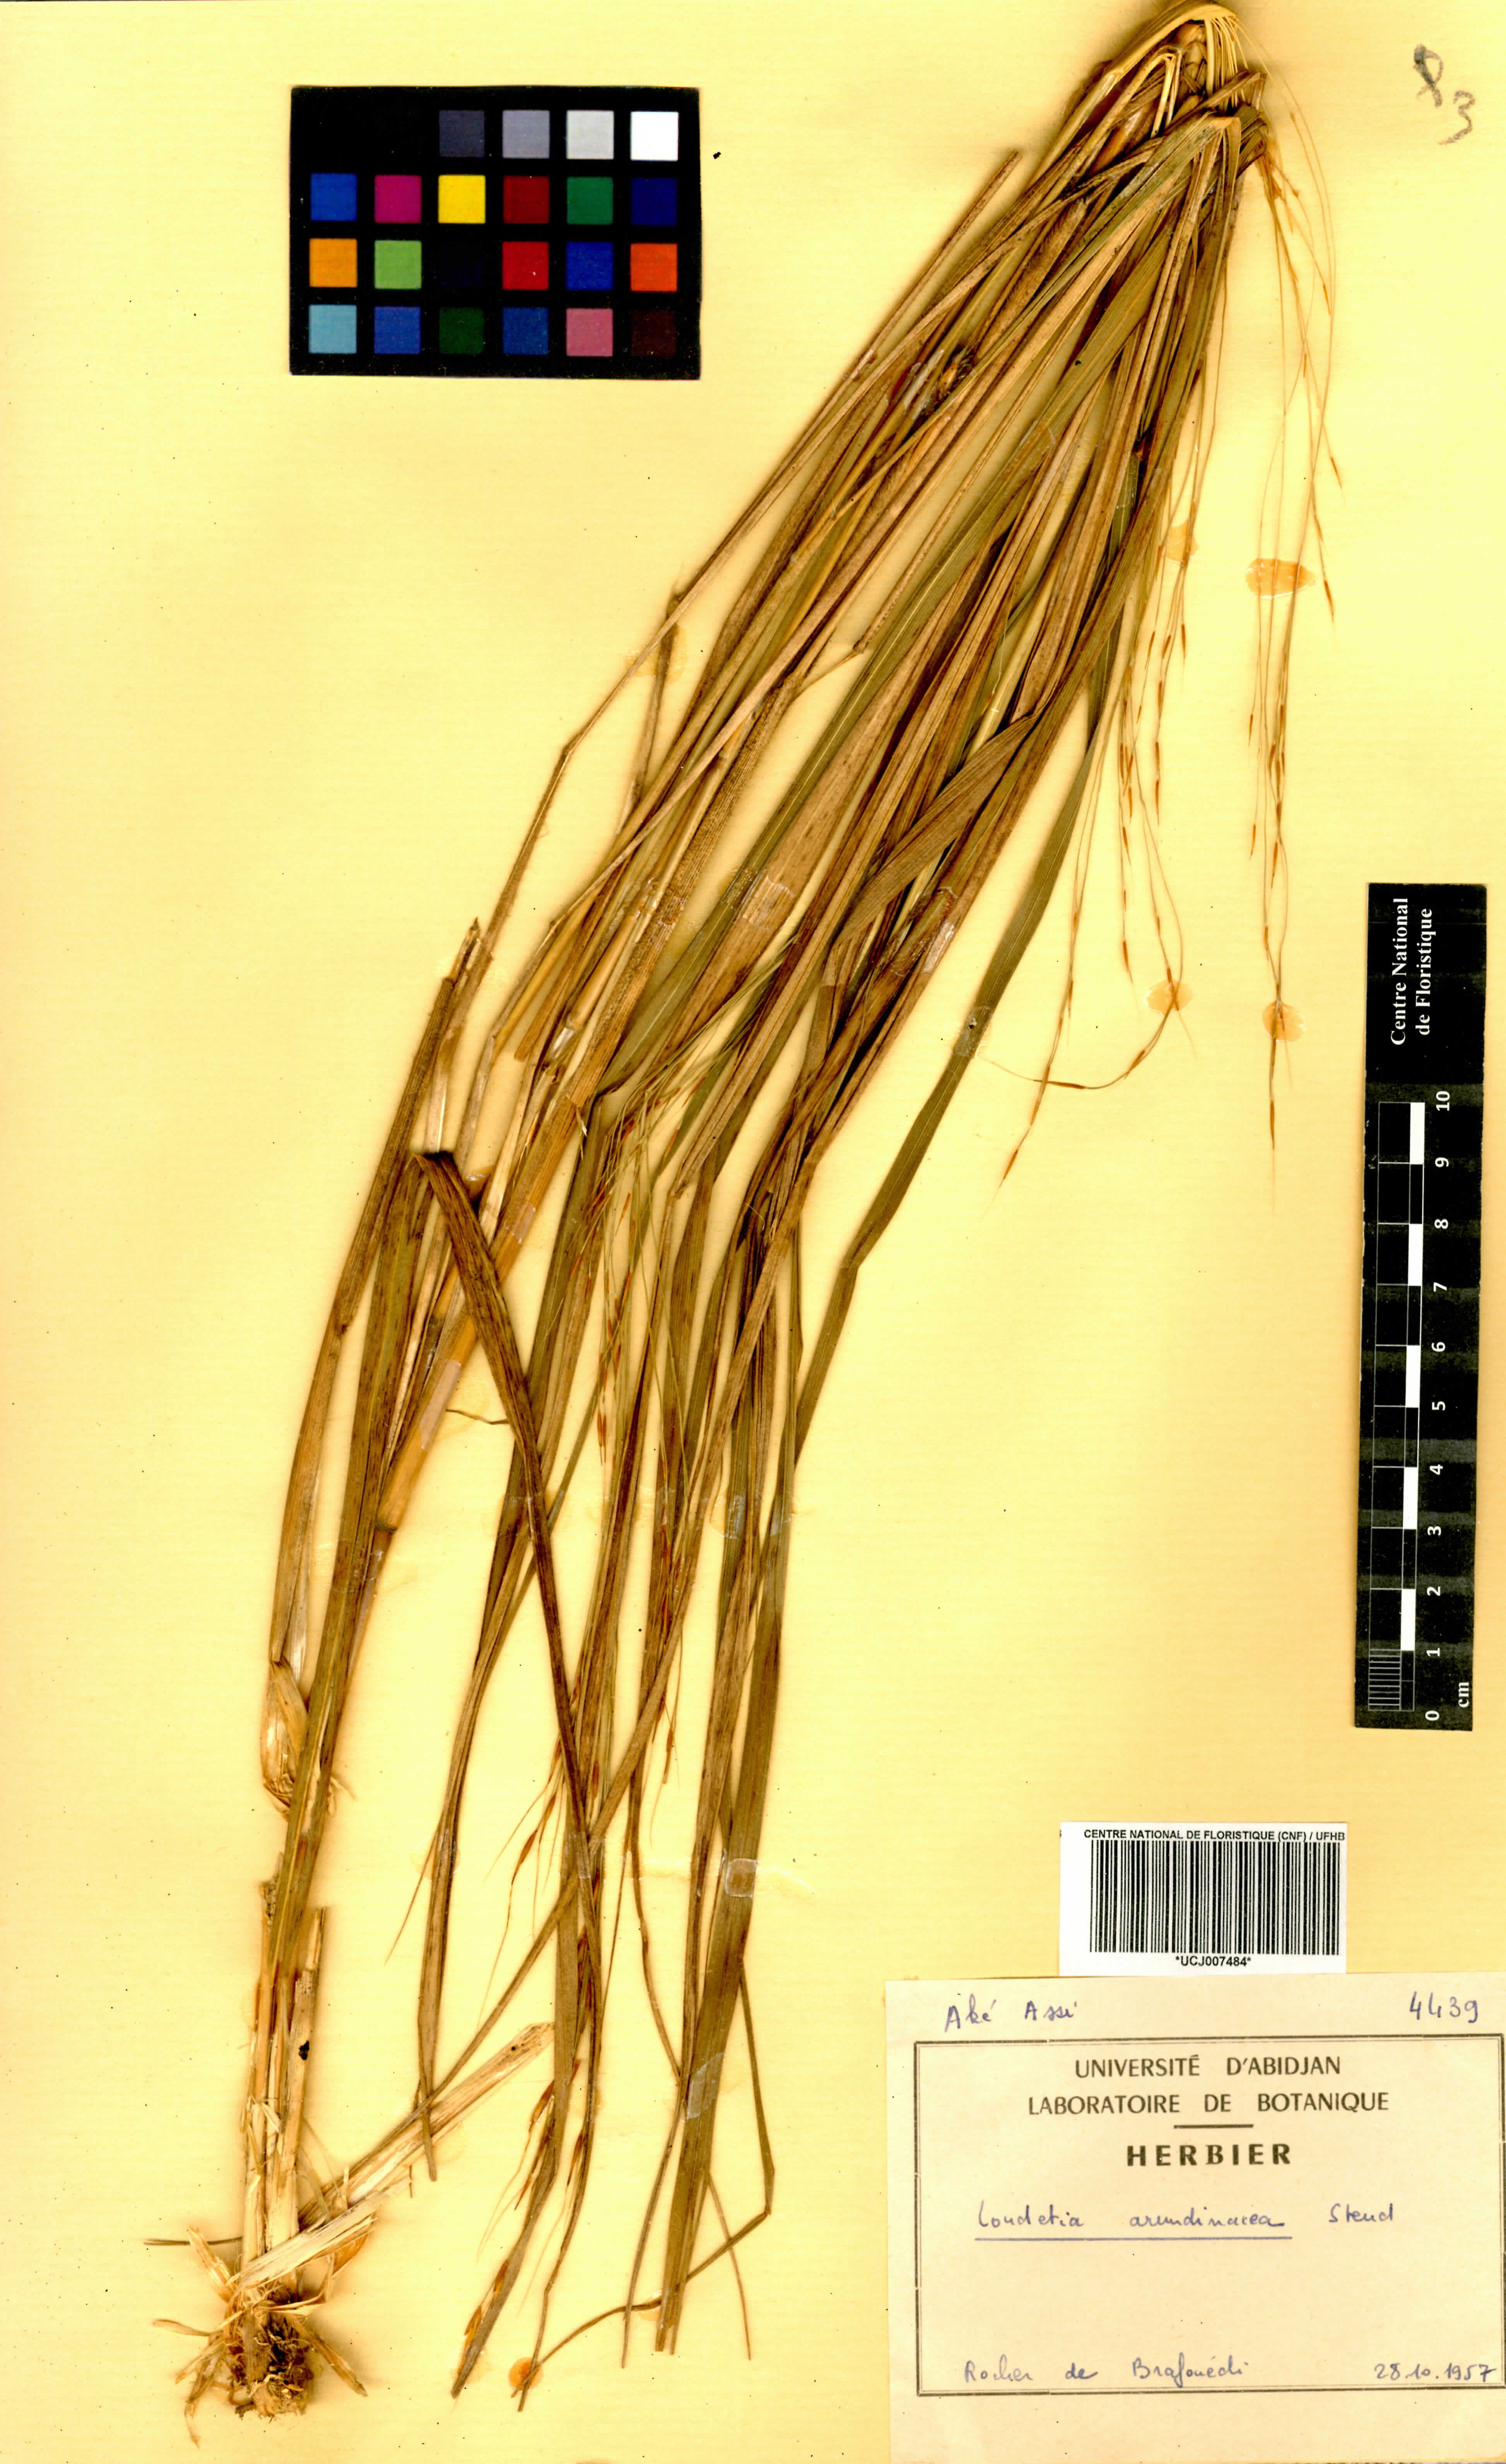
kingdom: Plantae
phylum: Tracheophyta
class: Liliopsida
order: Poales
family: Poaceae
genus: Loudetia
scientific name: Loudetia arundinacea
